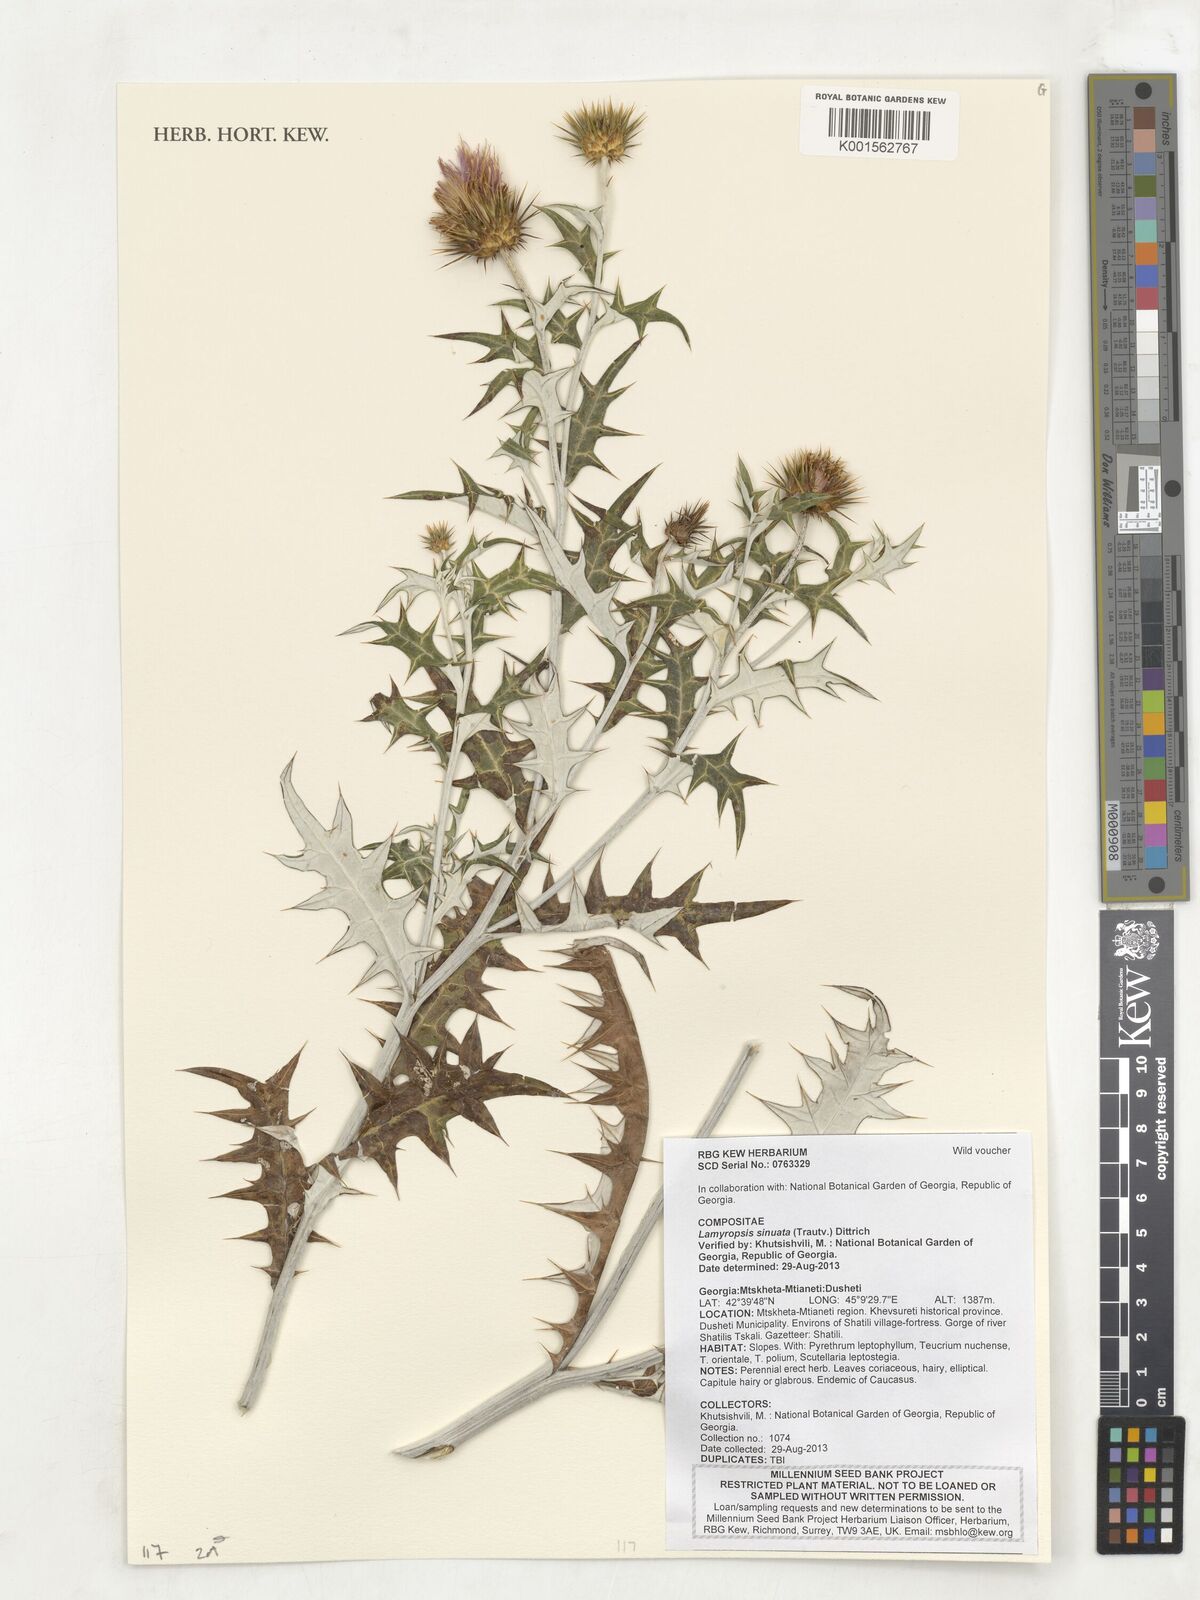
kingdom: Plantae
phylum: Tracheophyta
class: Magnoliopsida
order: Asterales
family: Asteraceae
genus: Lamyropsis
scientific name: Lamyropsis sinuata
